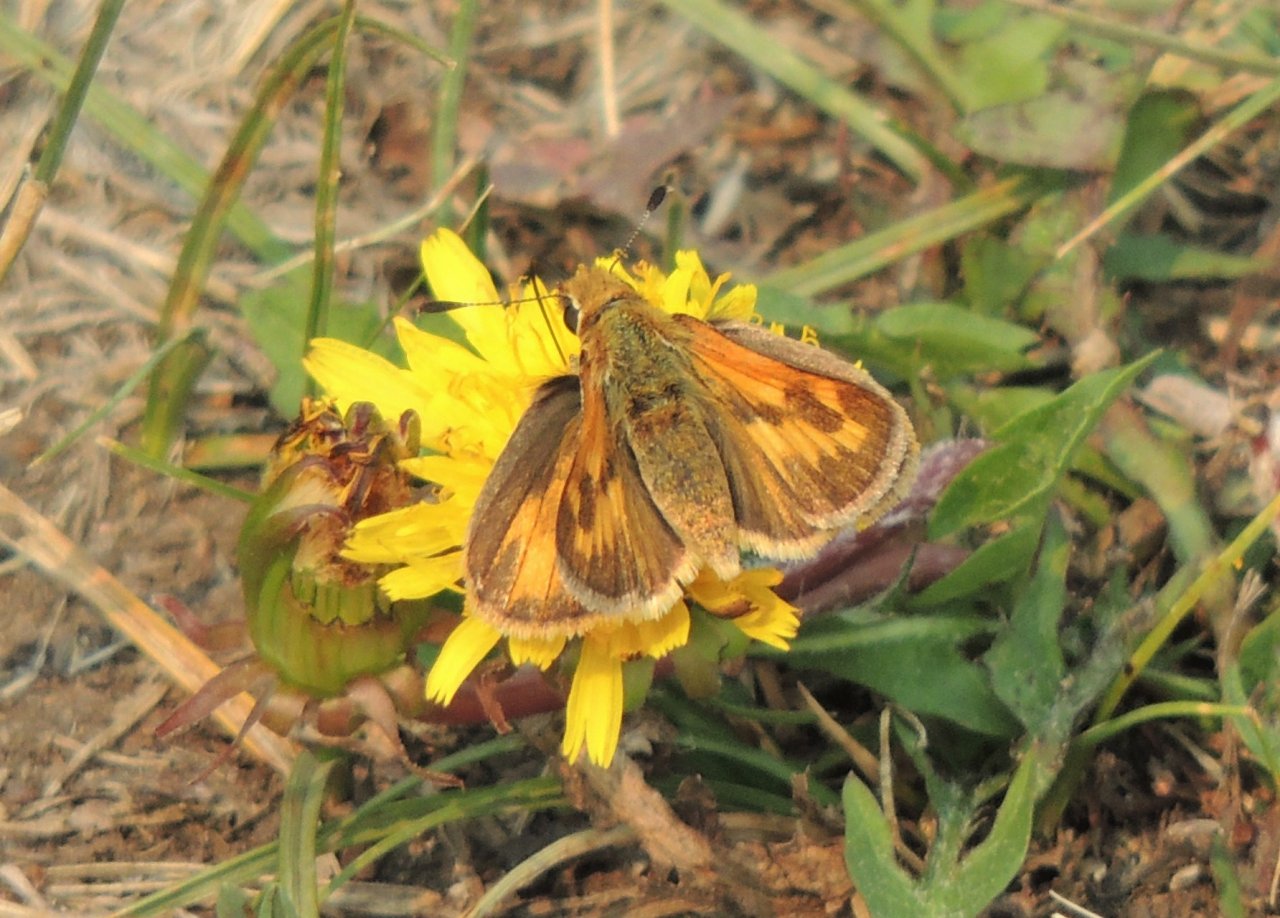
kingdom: Animalia
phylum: Arthropoda
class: Insecta
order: Lepidoptera
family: Hesperiidae
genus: Ochlodes
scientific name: Ochlodes sylvanoides
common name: Woodland Skipper
